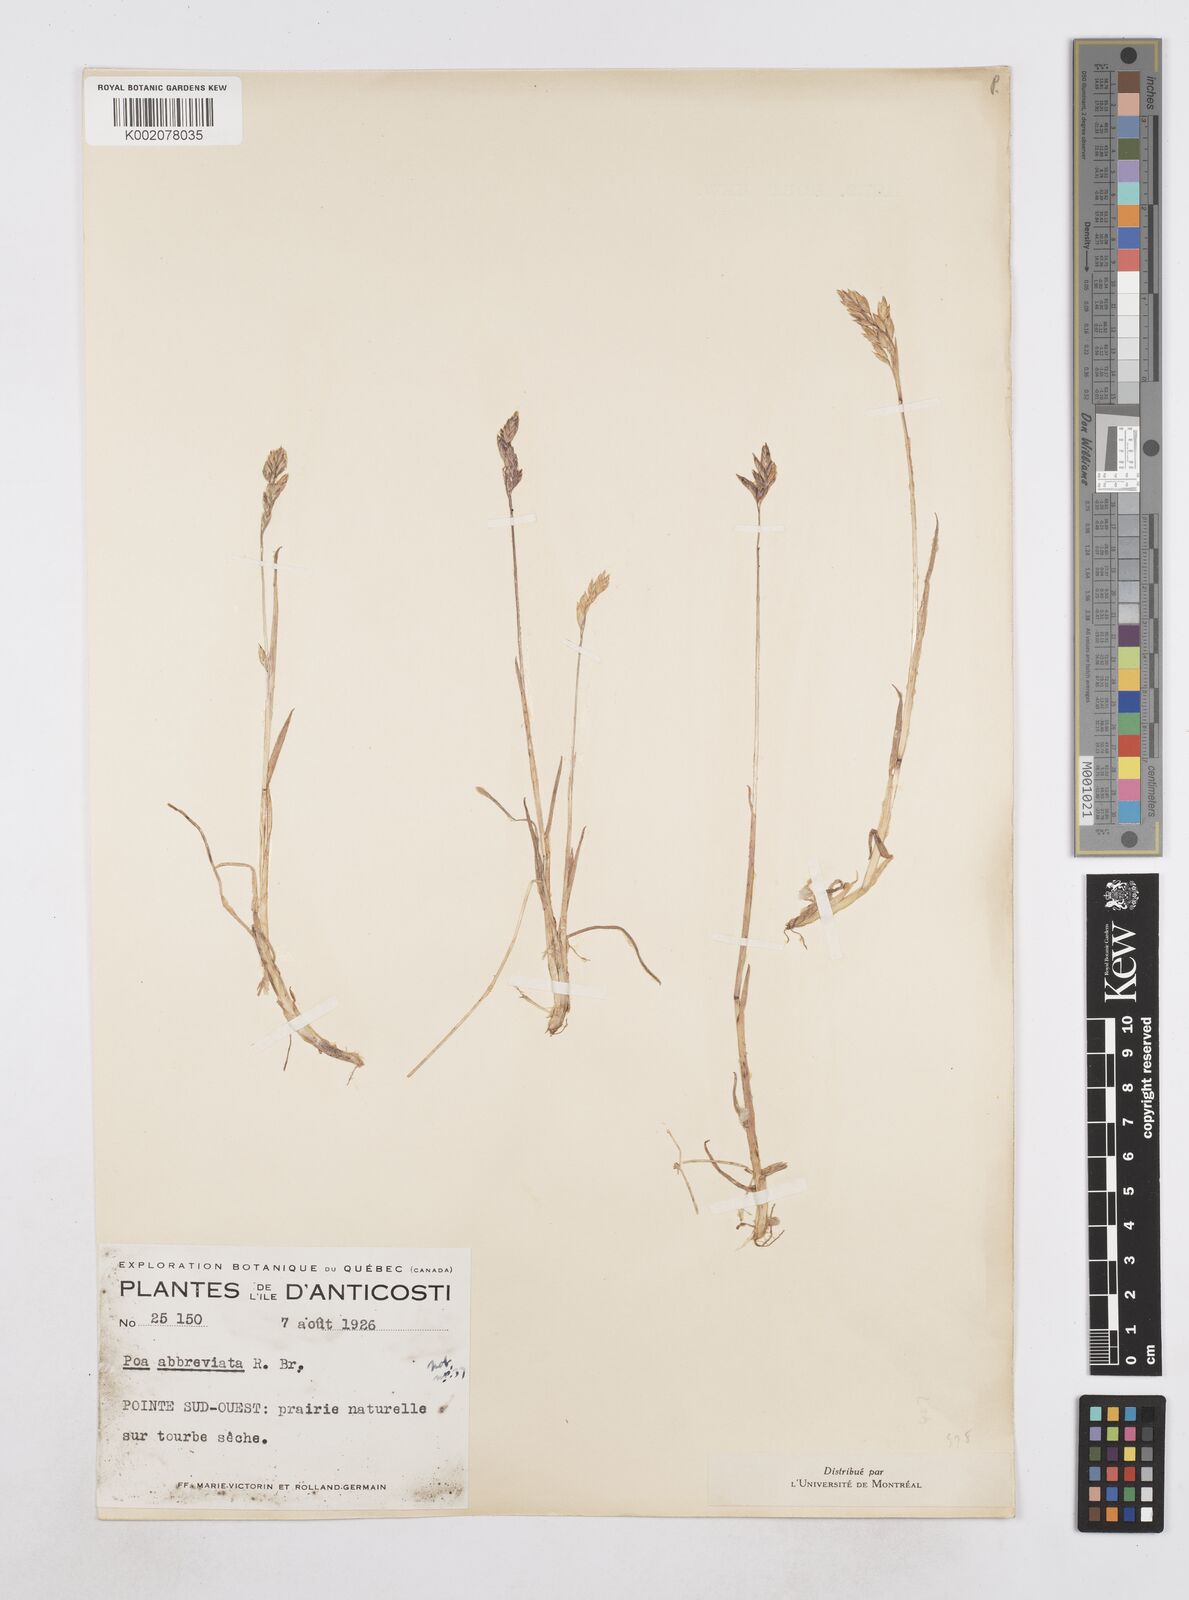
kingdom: Plantae
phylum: Tracheophyta
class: Liliopsida
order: Poales
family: Poaceae
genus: Poa
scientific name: Poa
